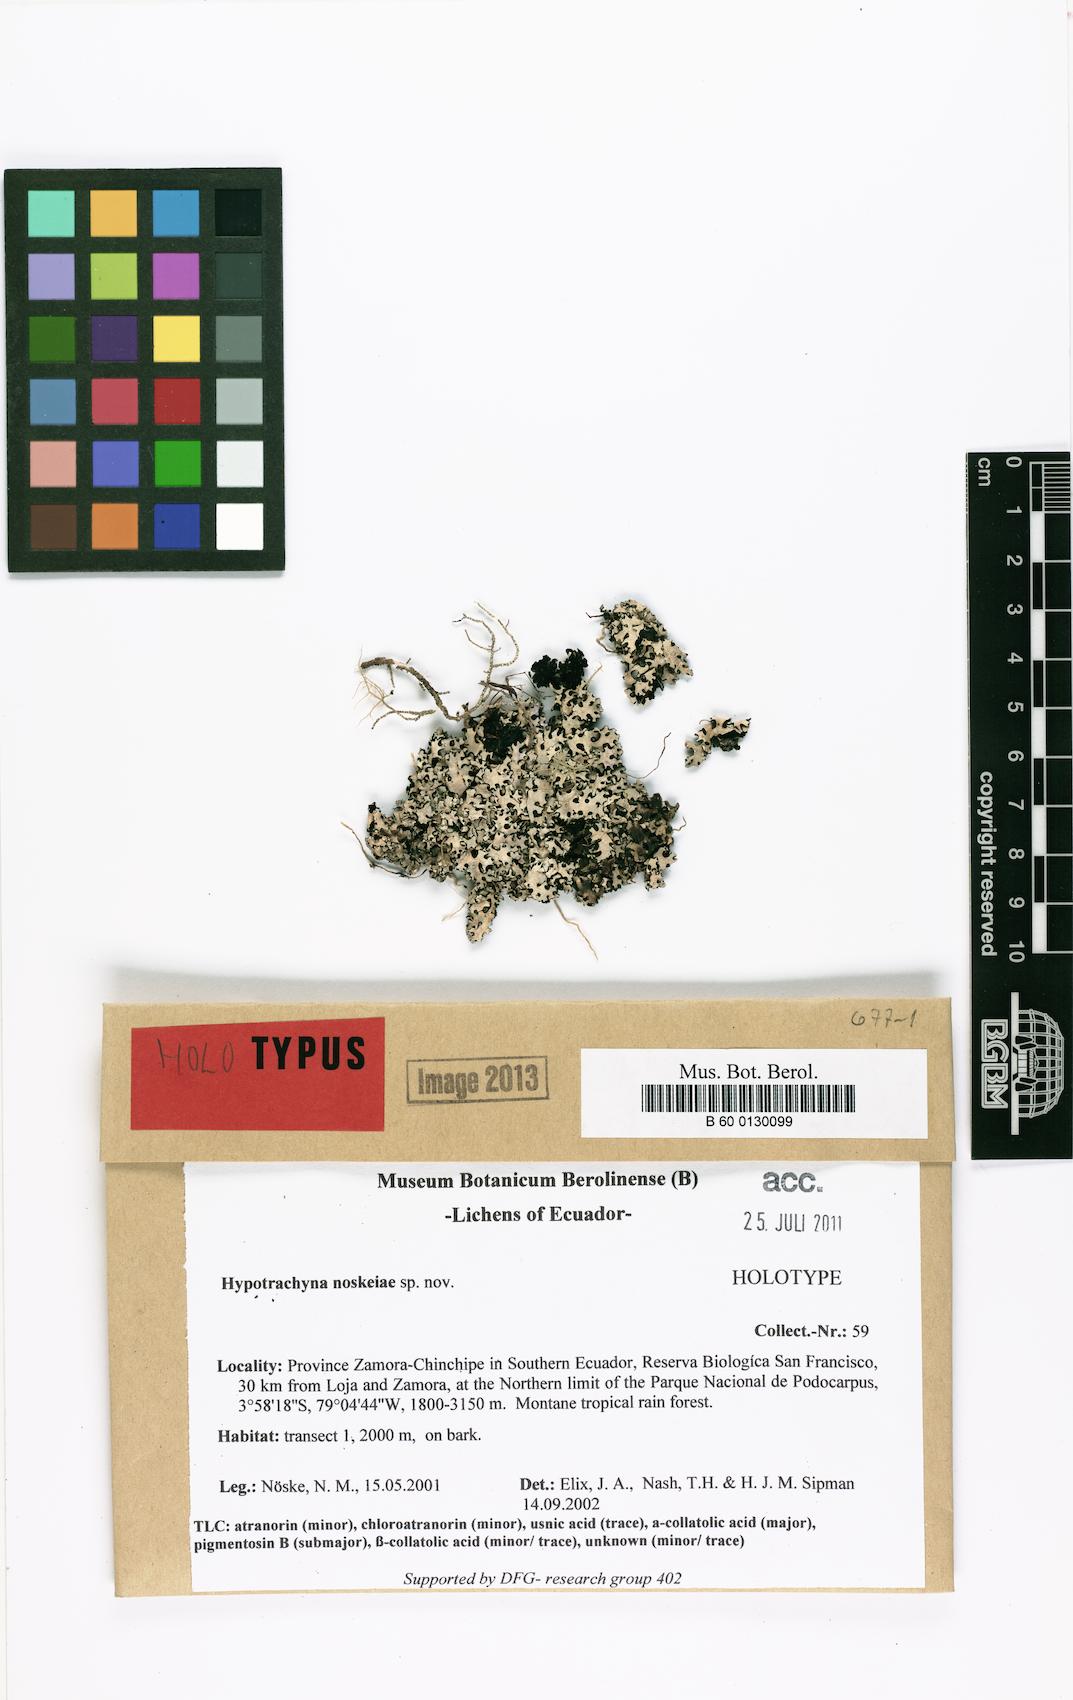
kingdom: Fungi
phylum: Ascomycota
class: Lecanoromycetes
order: Lecanorales
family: Parmeliaceae
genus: Hypotrachyna
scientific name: Hypotrachyna noskeae
